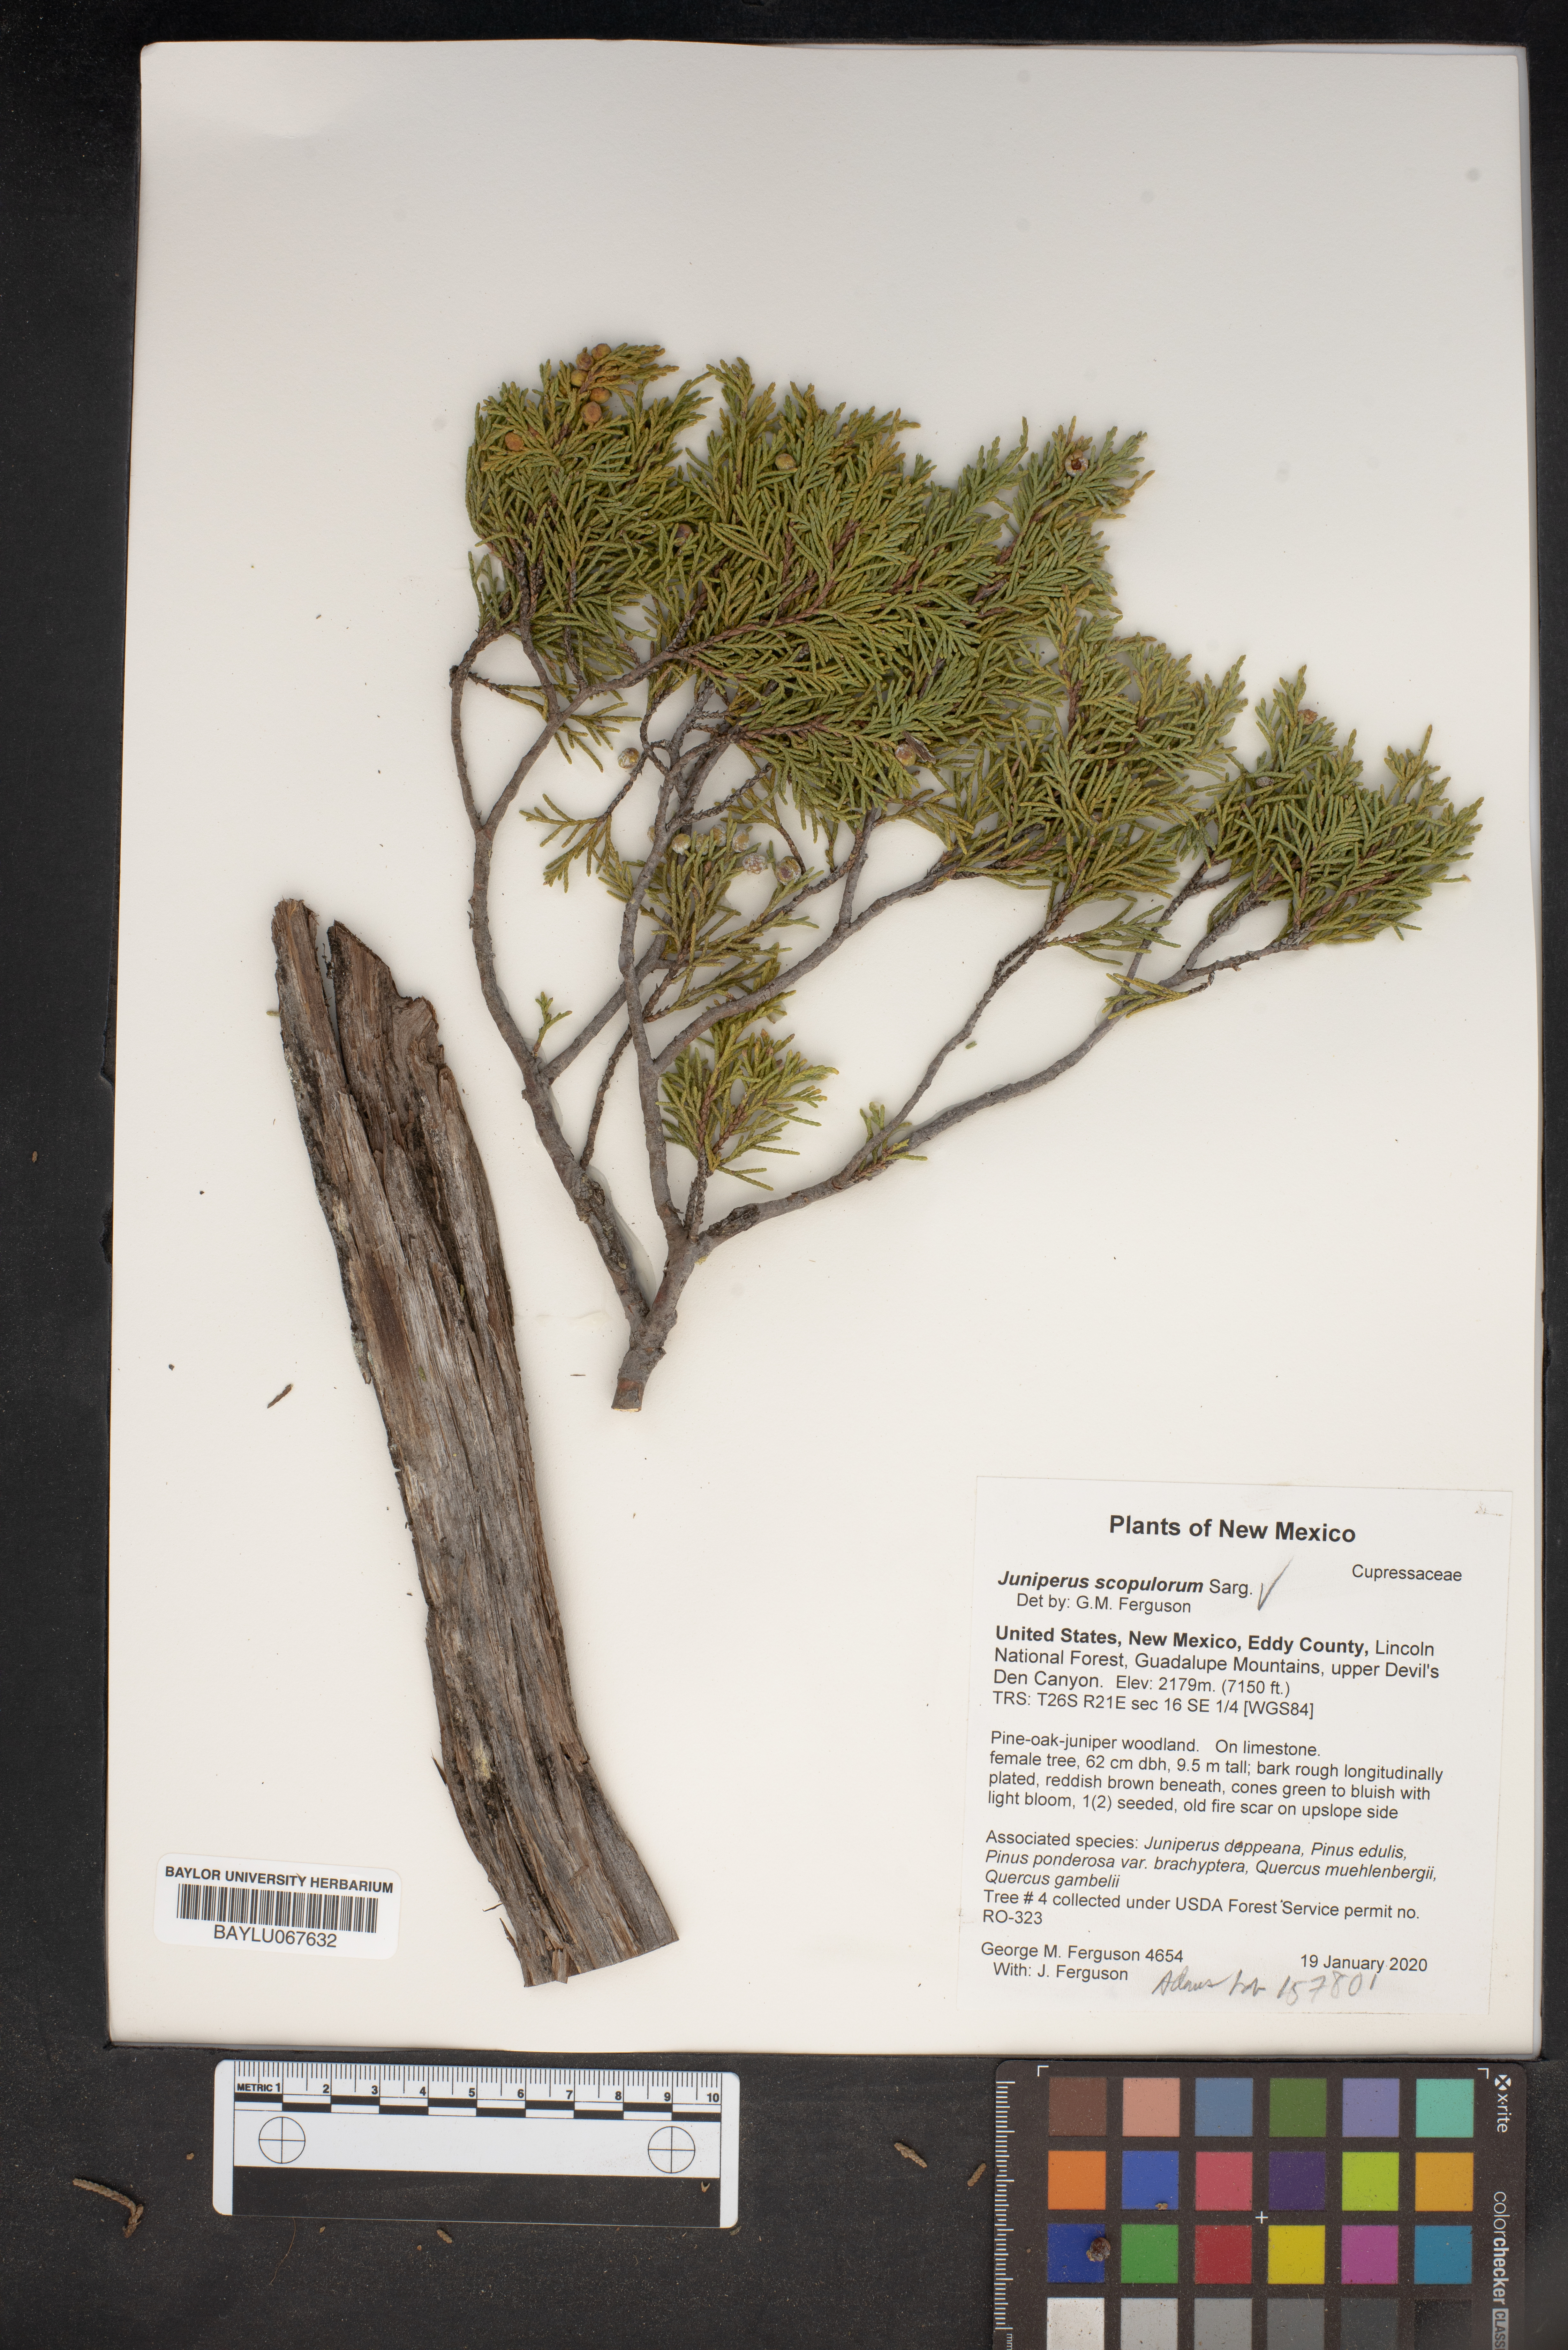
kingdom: Plantae
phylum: Tracheophyta
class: Pinopsida
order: Pinales
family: Cupressaceae
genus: Juniperus
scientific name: Juniperus scopulorum
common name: Rocky mountain juniper
